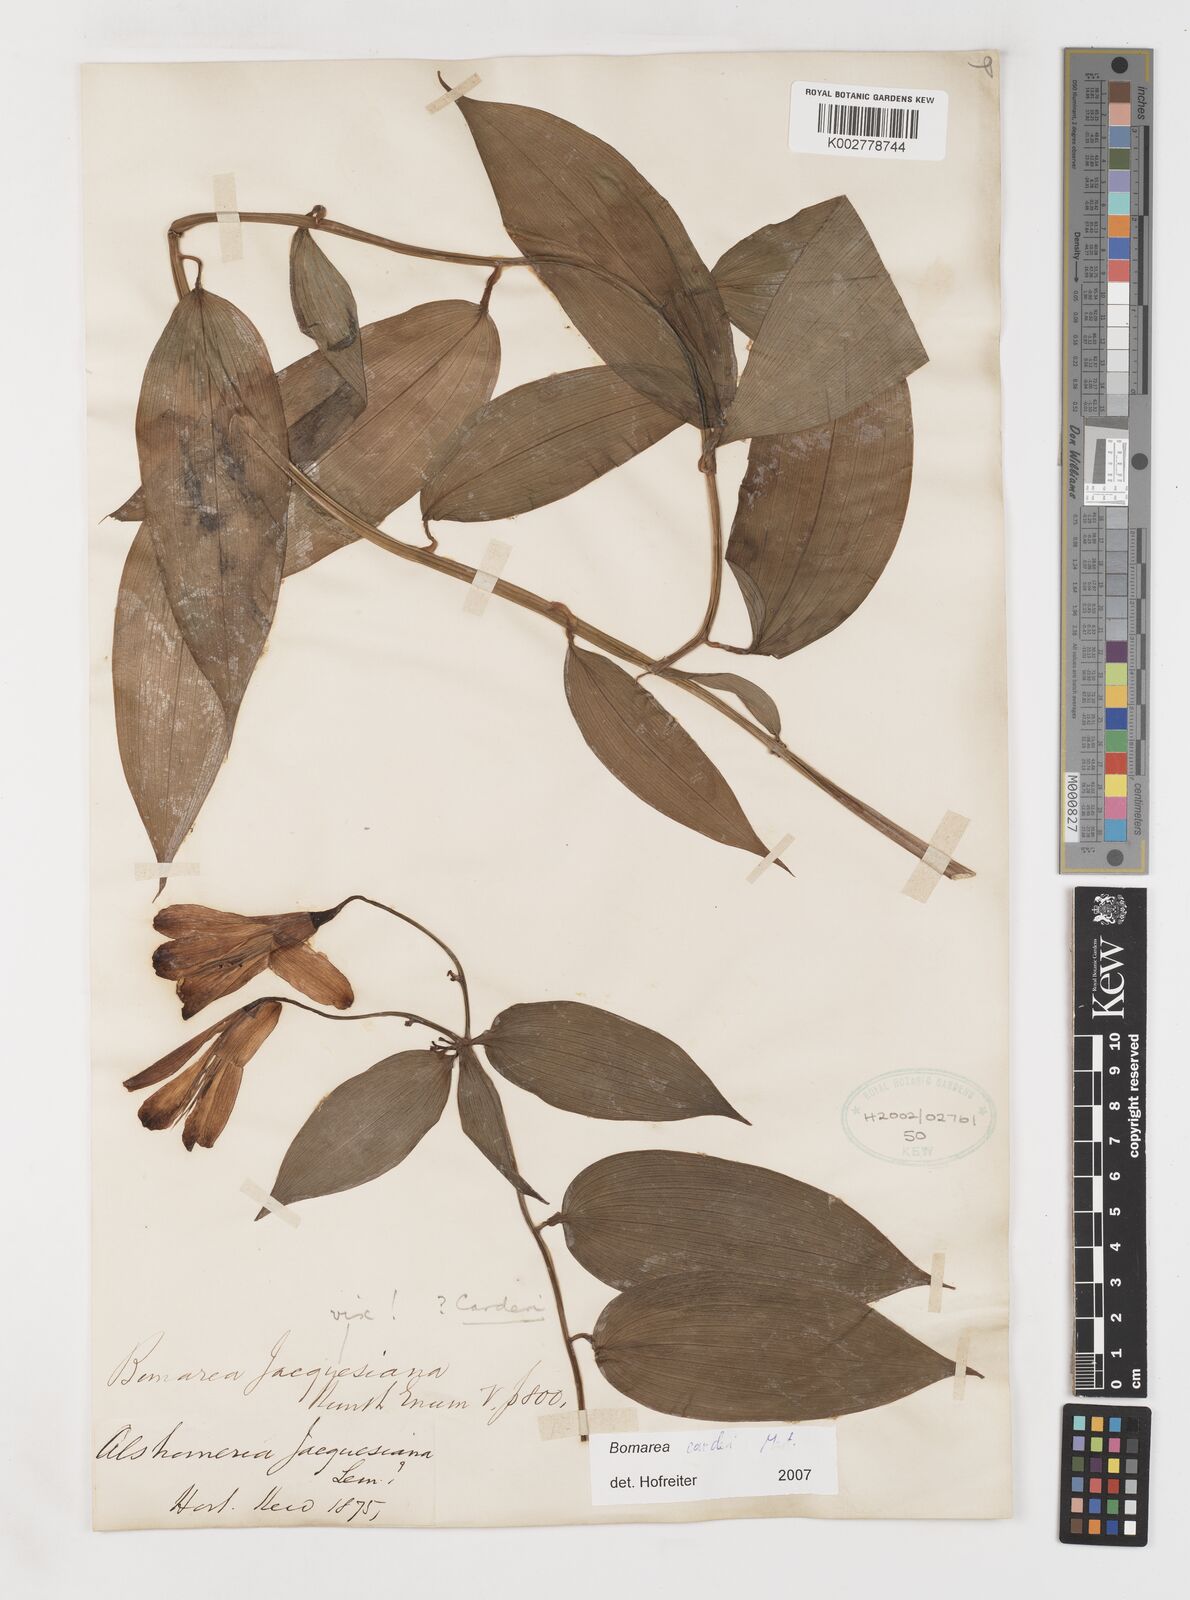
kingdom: Plantae
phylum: Tracheophyta
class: Liliopsida
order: Liliales
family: Alstroemeriaceae
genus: Bomarea
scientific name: Bomarea carderi
